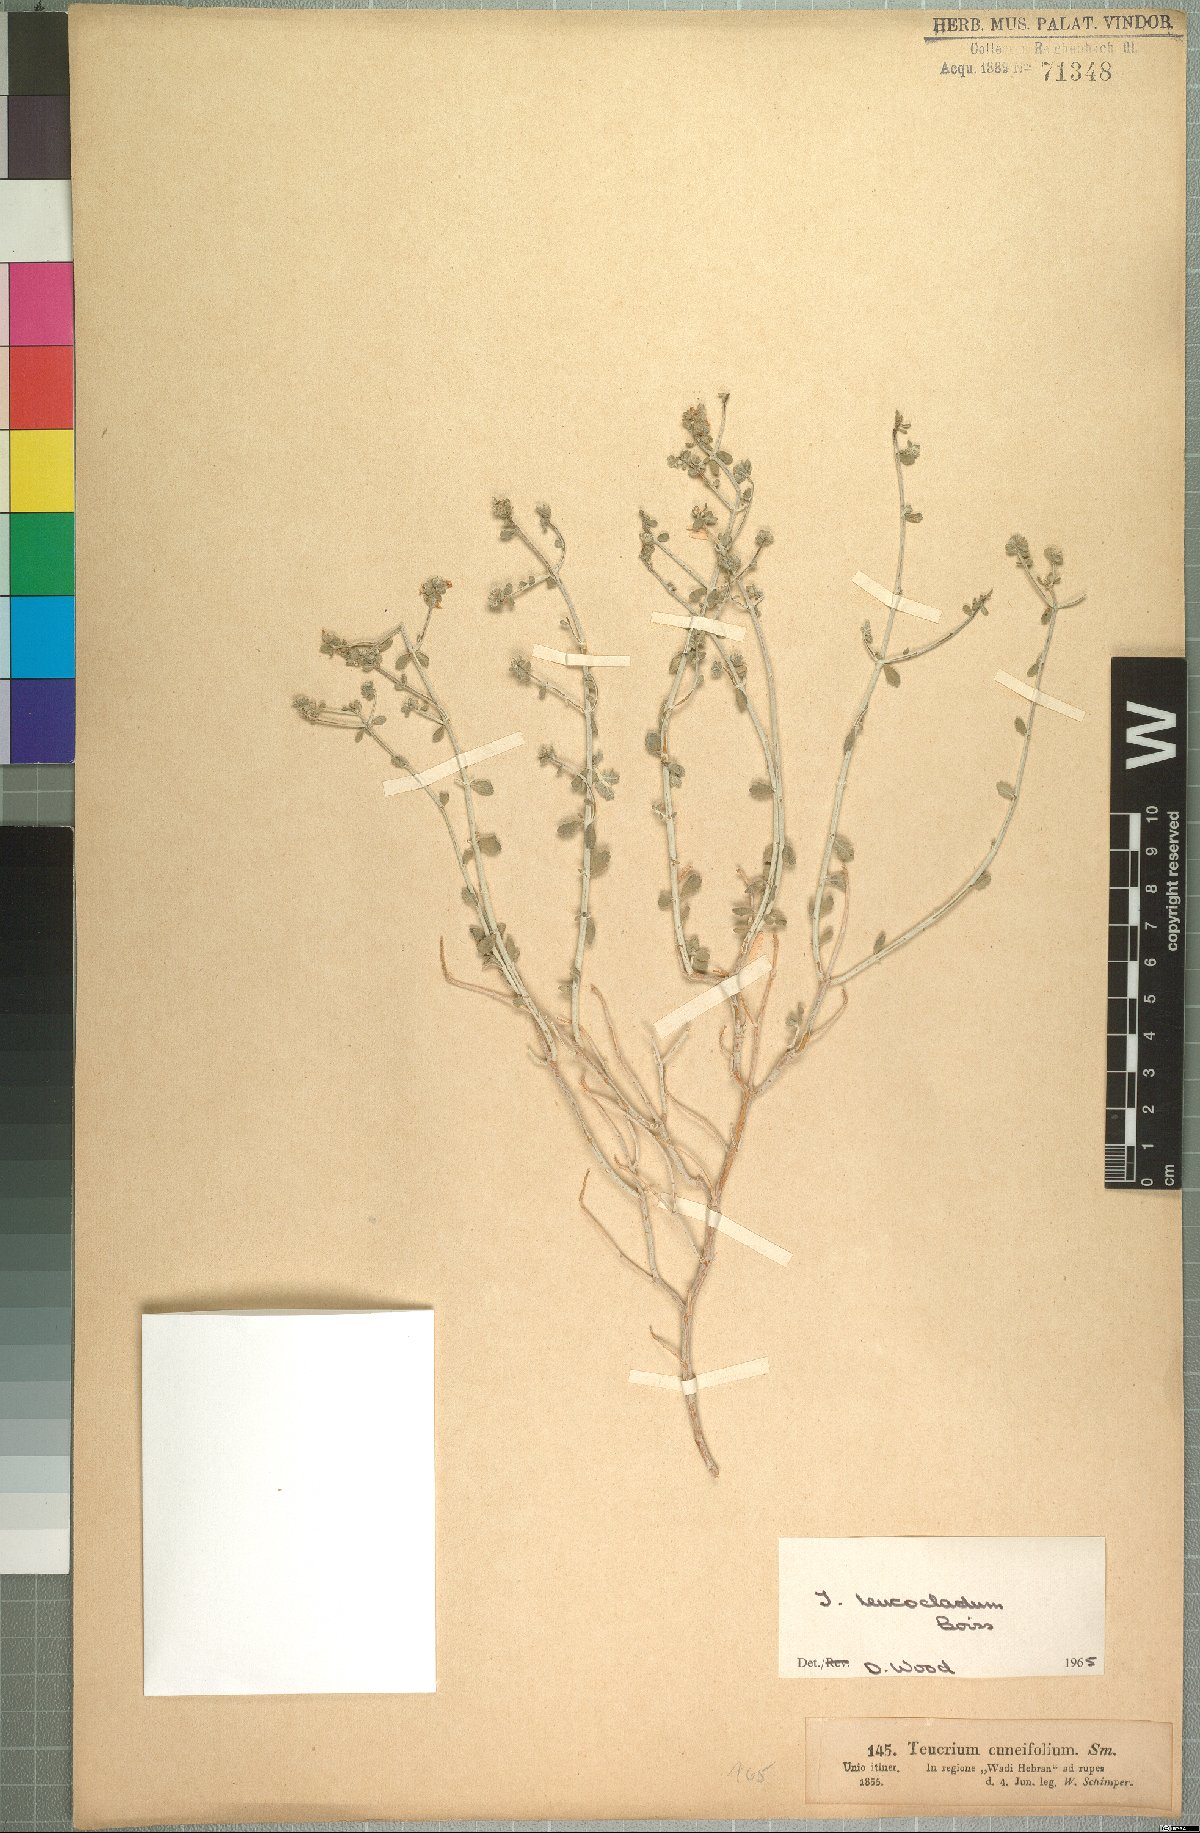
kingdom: Plantae
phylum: Tracheophyta
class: Magnoliopsida
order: Lamiales
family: Lamiaceae
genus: Teucrium
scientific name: Teucrium leucocladum
